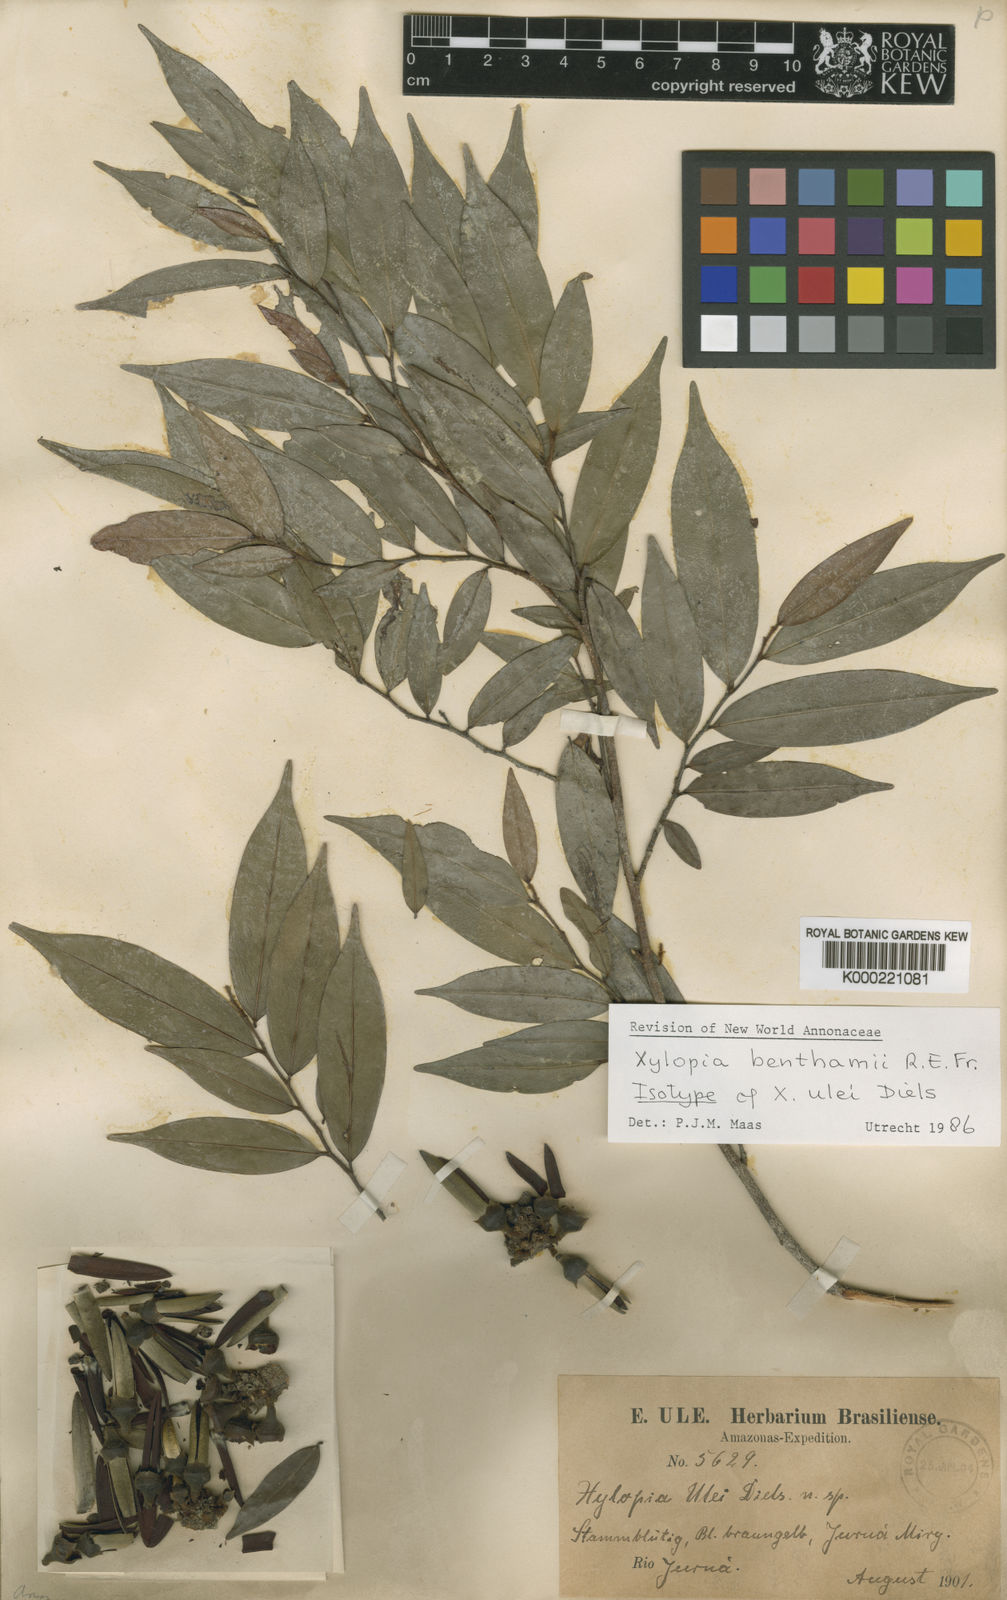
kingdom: Plantae
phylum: Tracheophyta
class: Magnoliopsida
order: Magnoliales
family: Annonaceae
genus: Xylopia
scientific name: Xylopia benthamii
